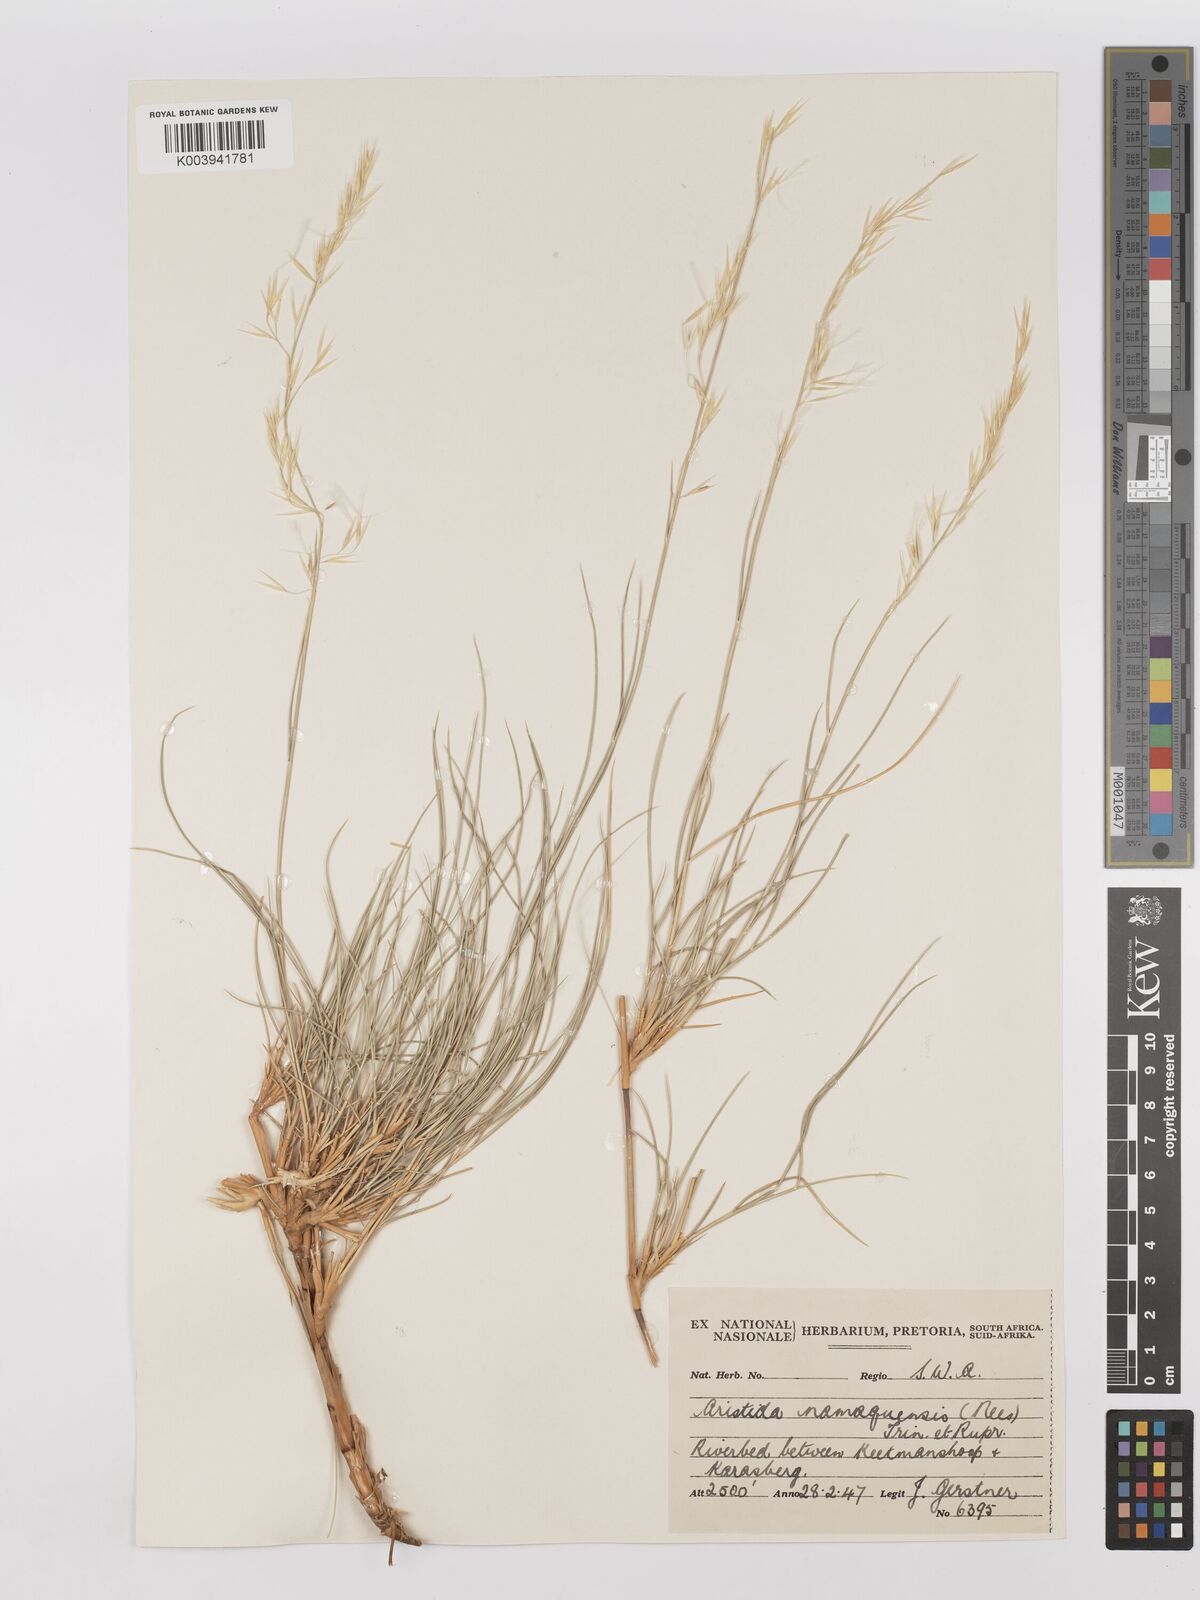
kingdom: Plantae
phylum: Tracheophyta
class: Liliopsida
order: Poales
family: Poaceae
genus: Stipagrostis
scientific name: Stipagrostis namaquensis
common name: River bushman grass
